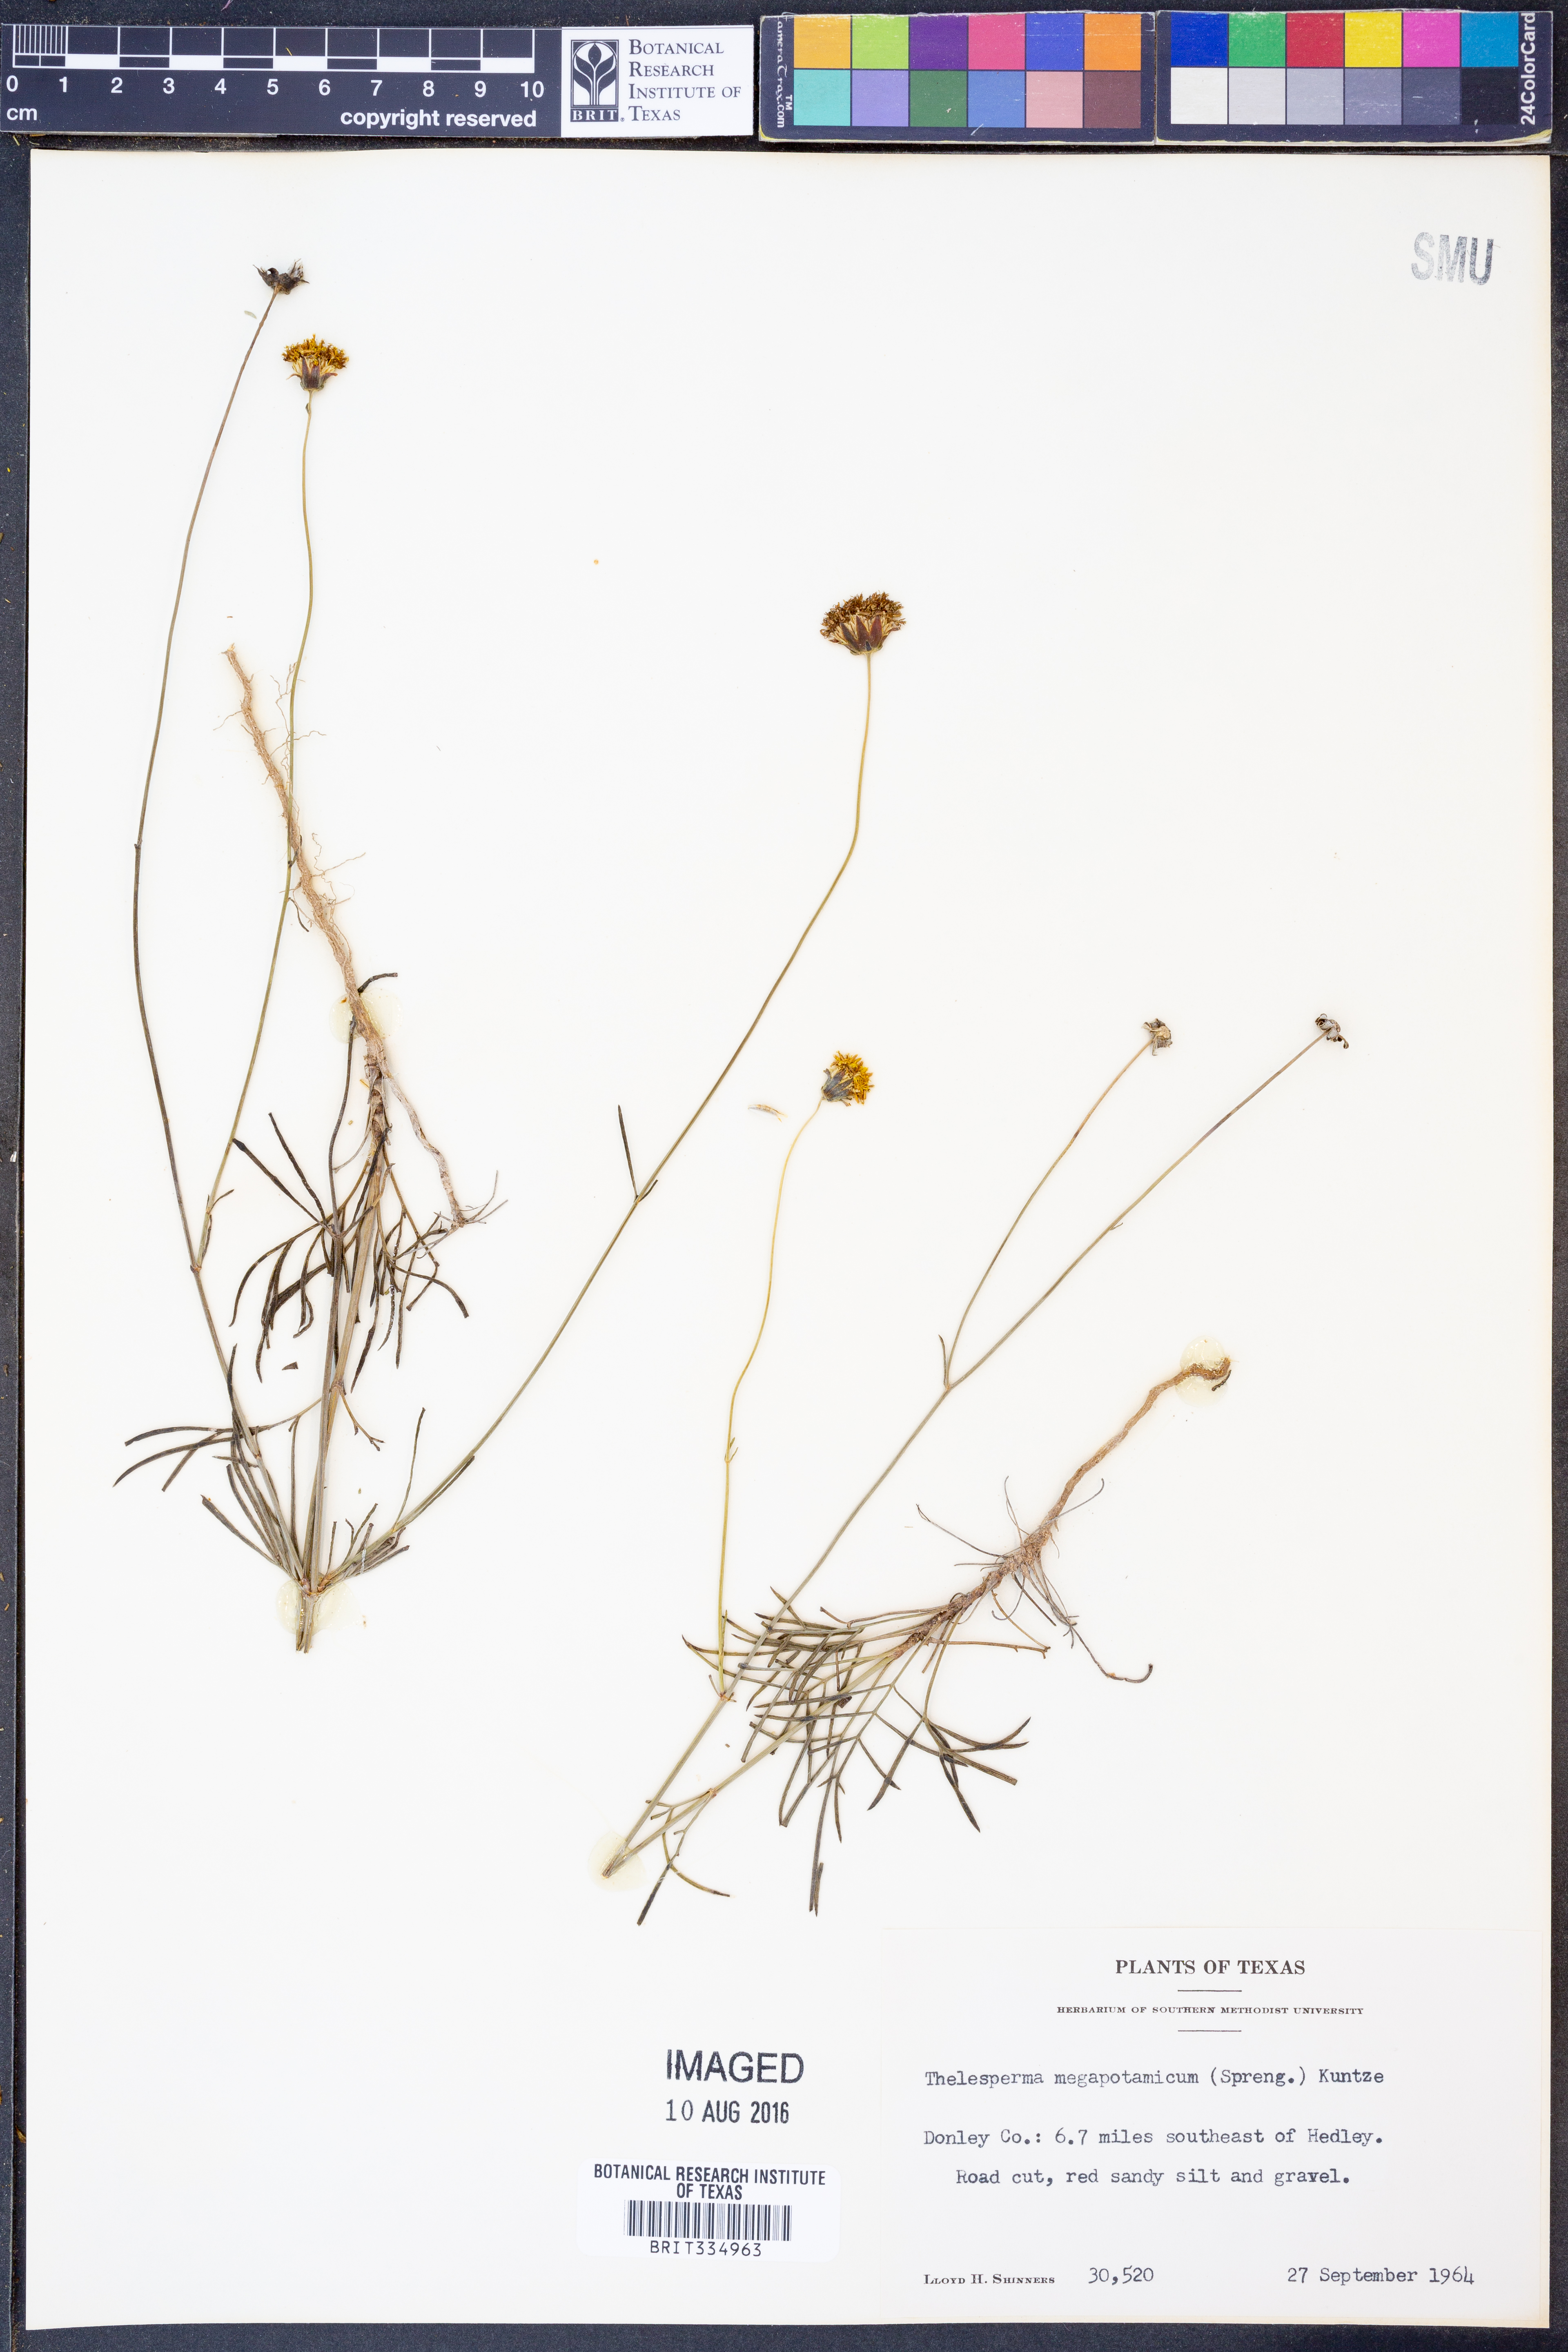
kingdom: Plantae
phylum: Tracheophyta
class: Magnoliopsida
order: Asterales
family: Asteraceae
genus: Thelesperma
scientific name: Thelesperma megapotamicum
